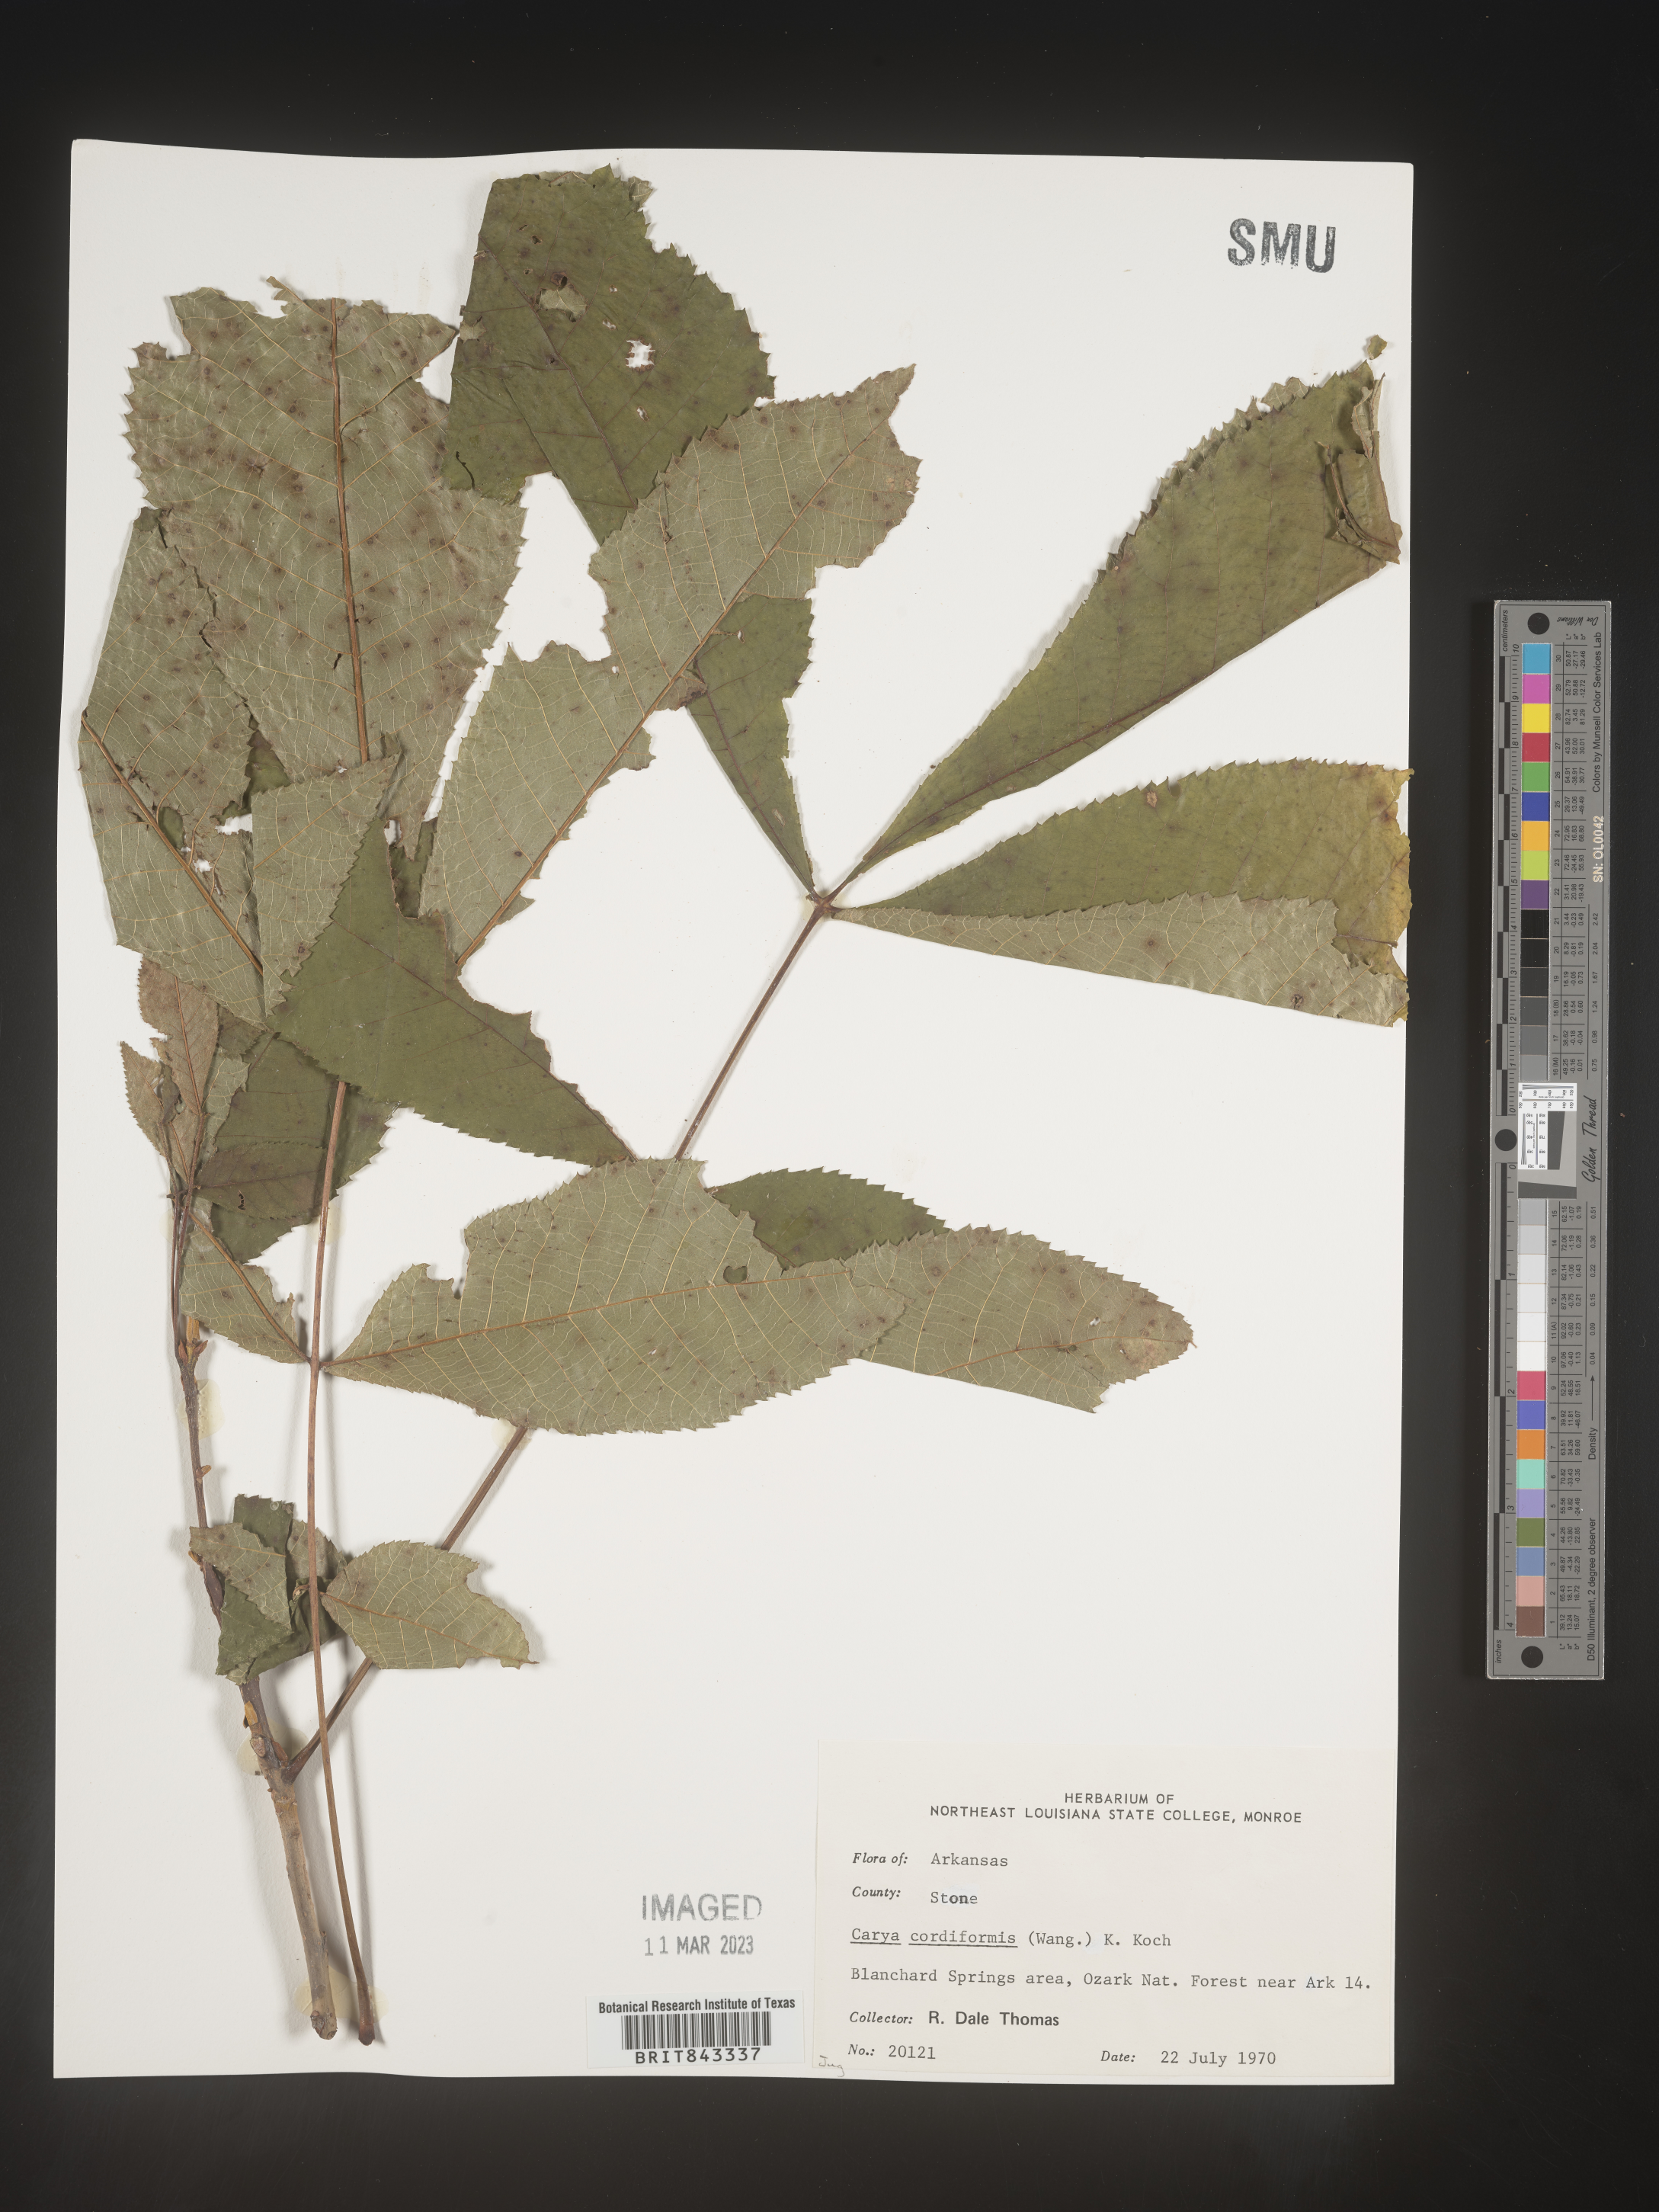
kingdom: Plantae
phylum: Tracheophyta
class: Magnoliopsida
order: Fagales
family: Juglandaceae
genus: Carya
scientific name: Carya cordiformis
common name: Bitternut hickory
